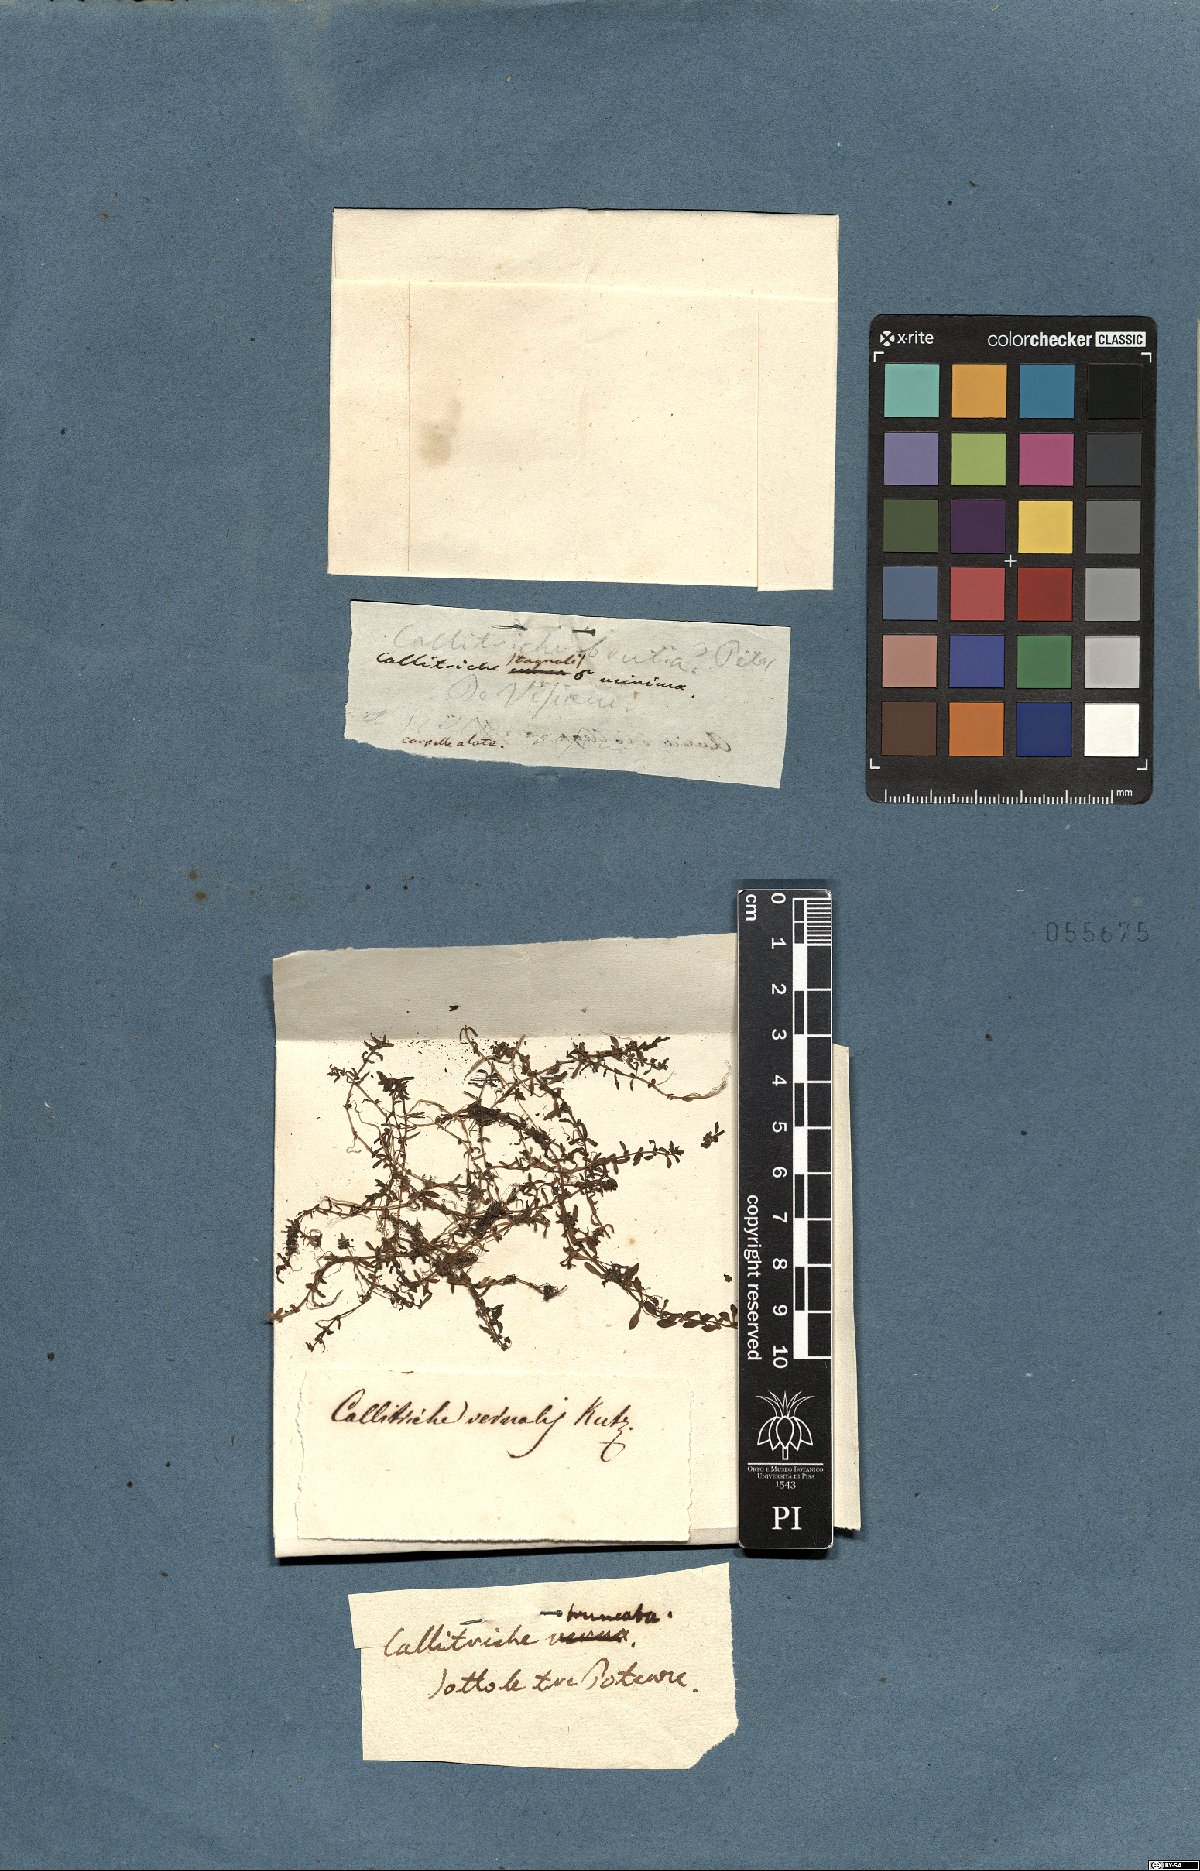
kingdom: Plantae
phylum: Tracheophyta
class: Magnoliopsida
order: Lamiales
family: Plantaginaceae
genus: Callitriche
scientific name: Callitriche truncata
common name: Short-leaved water-starwort
